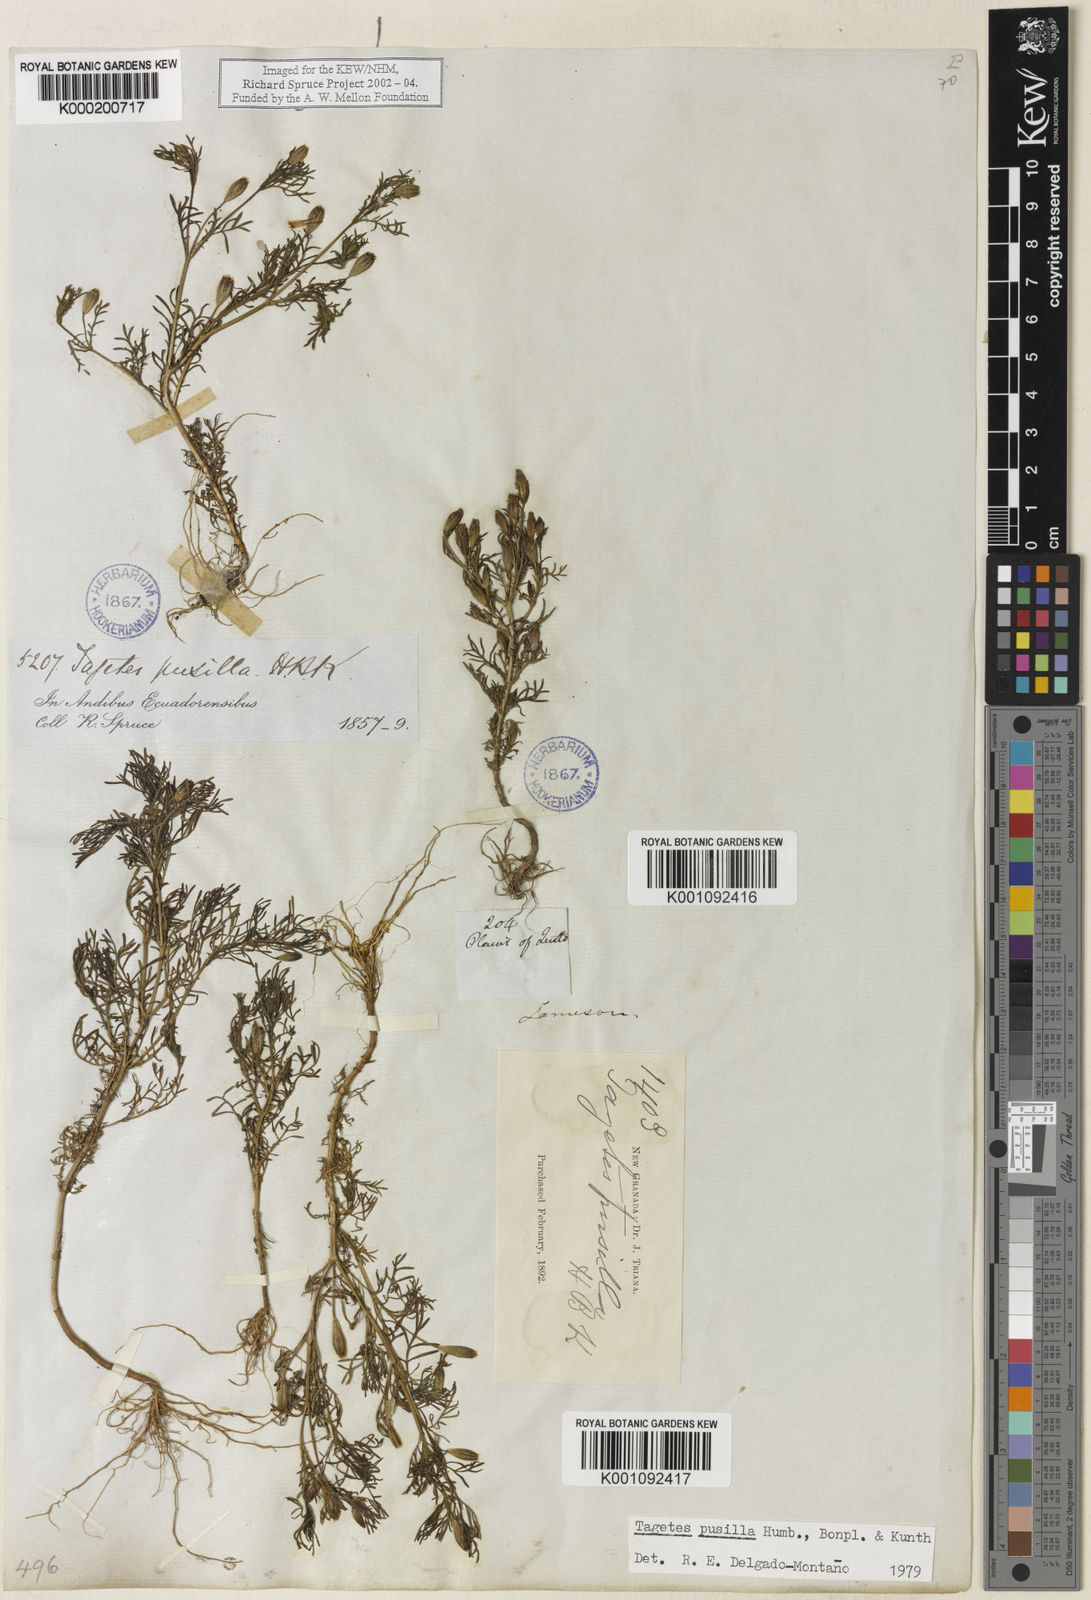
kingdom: Plantae
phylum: Tracheophyta
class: Magnoliopsida
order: Asterales
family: Asteraceae
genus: Tagetes
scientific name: Tagetes
